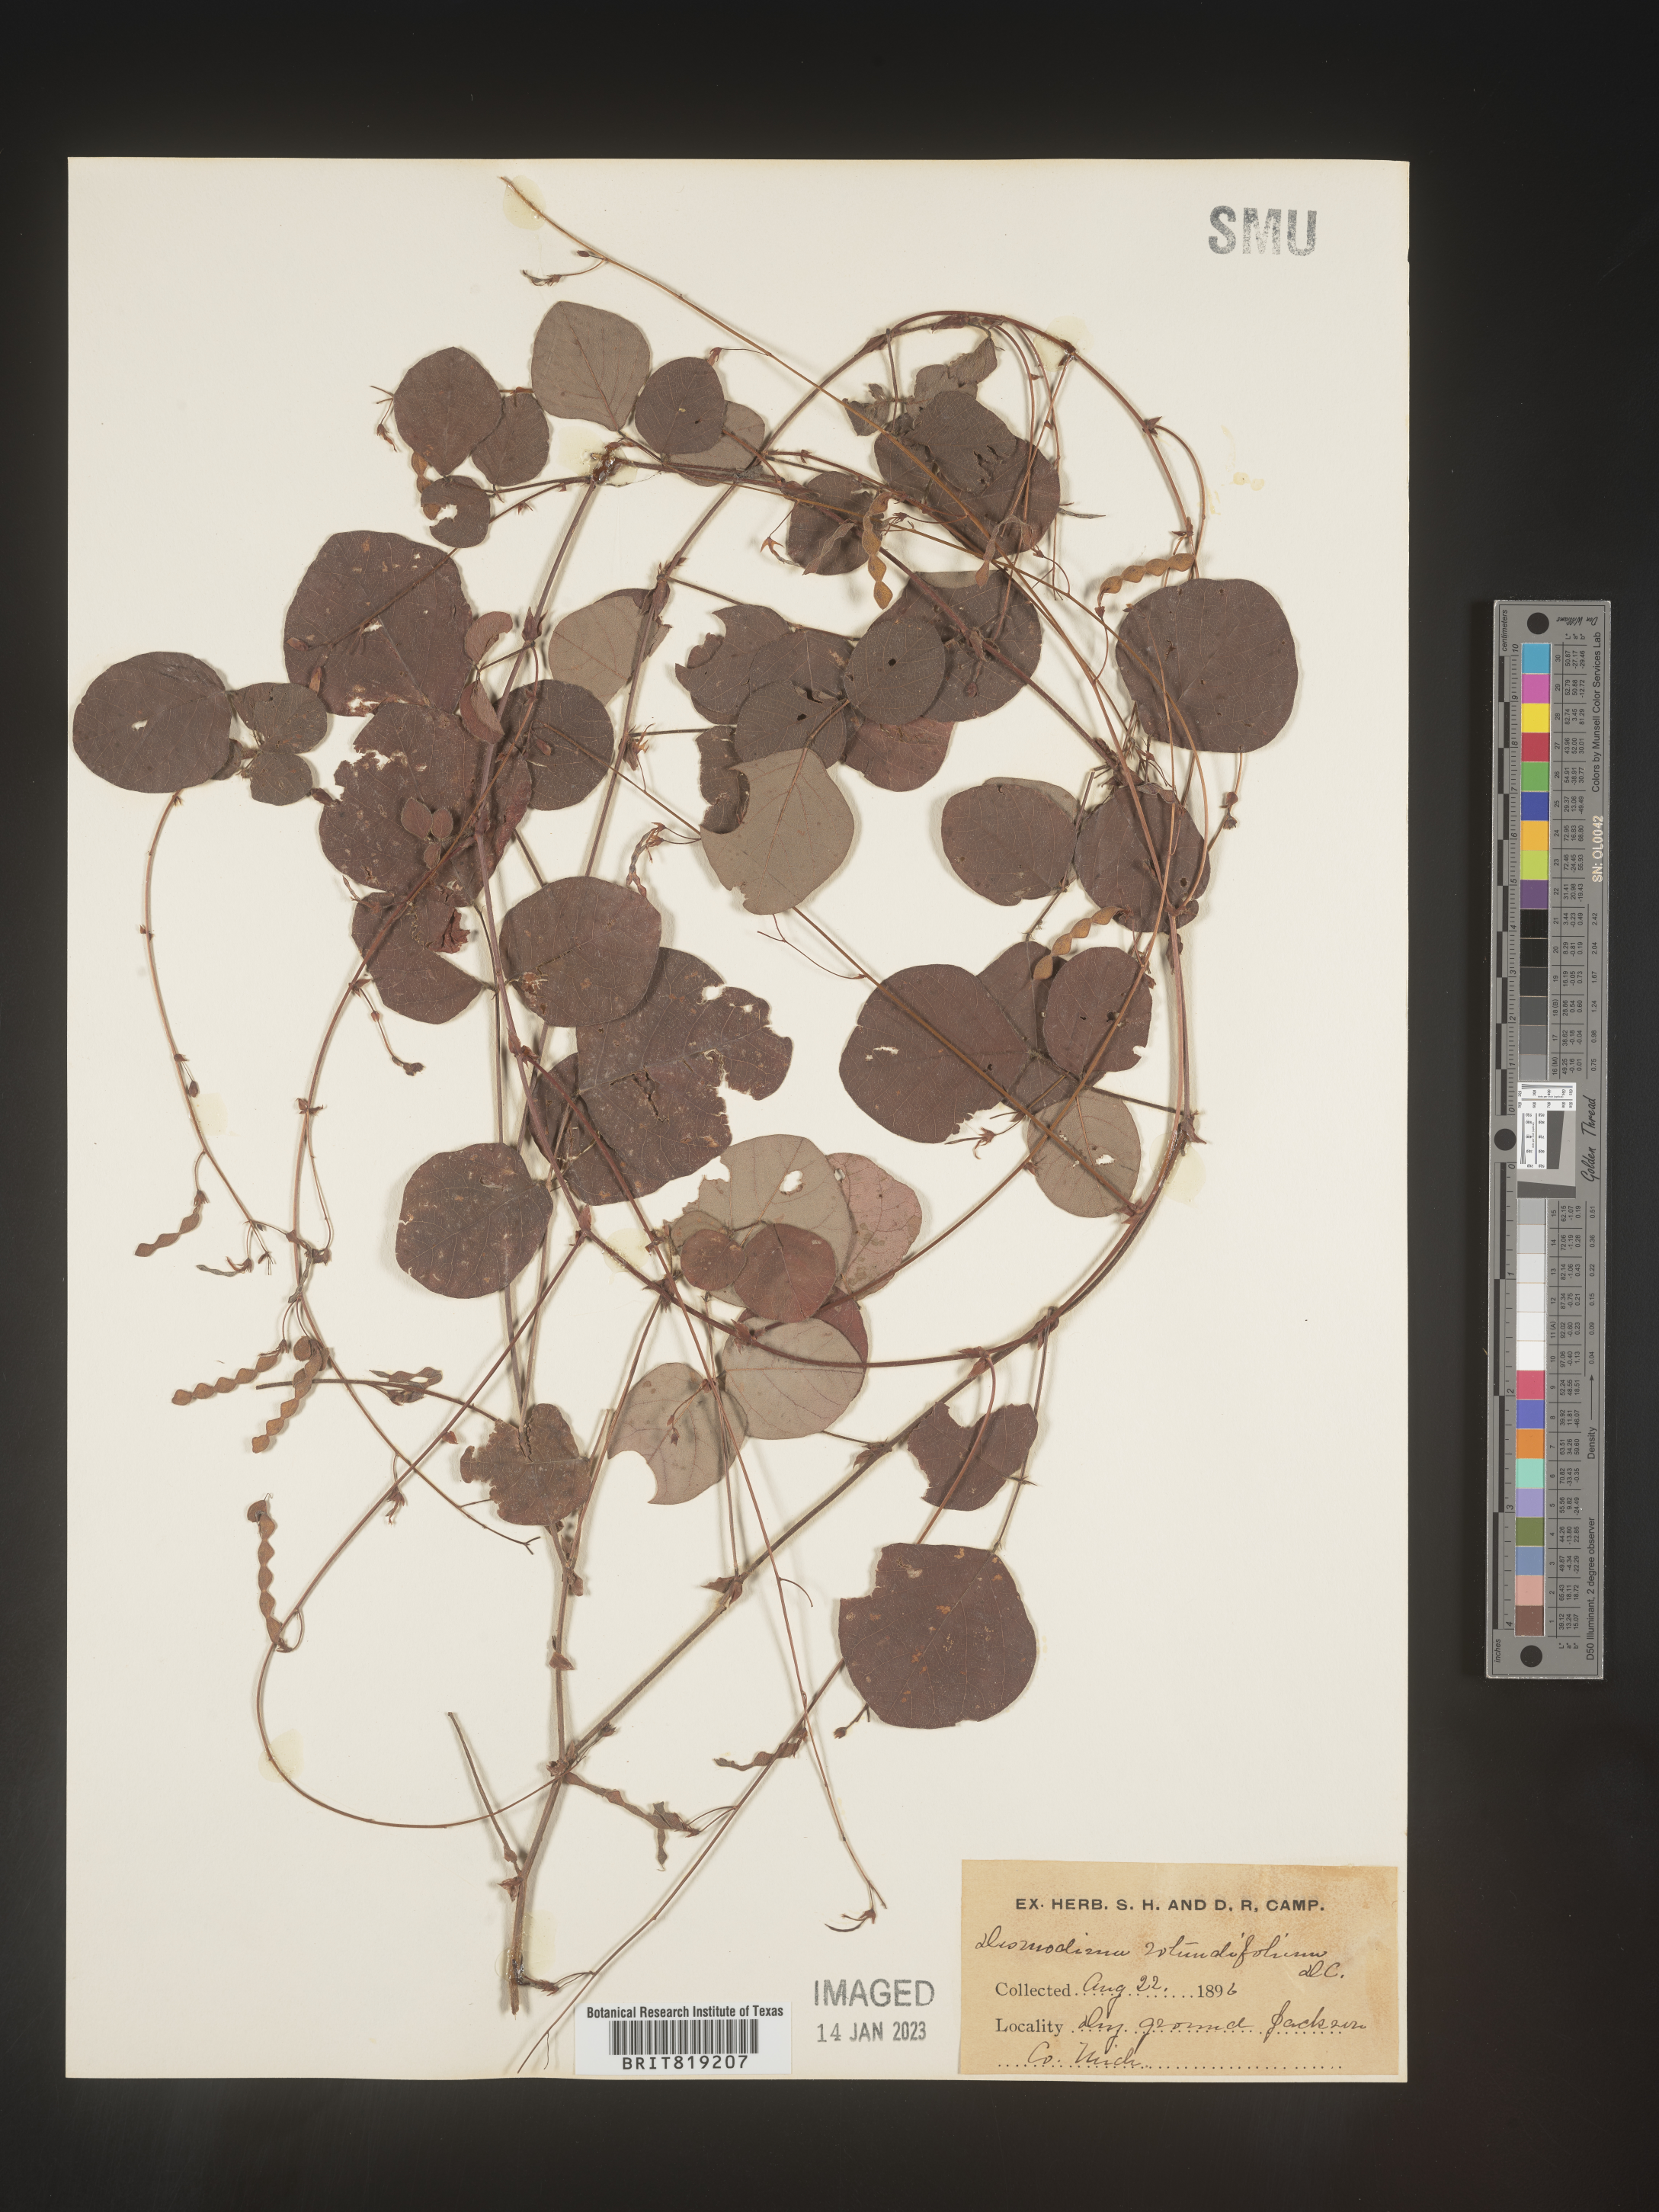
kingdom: Plantae
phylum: Tracheophyta
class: Magnoliopsida
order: Fabales
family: Fabaceae
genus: Desmodium
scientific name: Desmodium rotundifolium
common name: Dollarleaf
